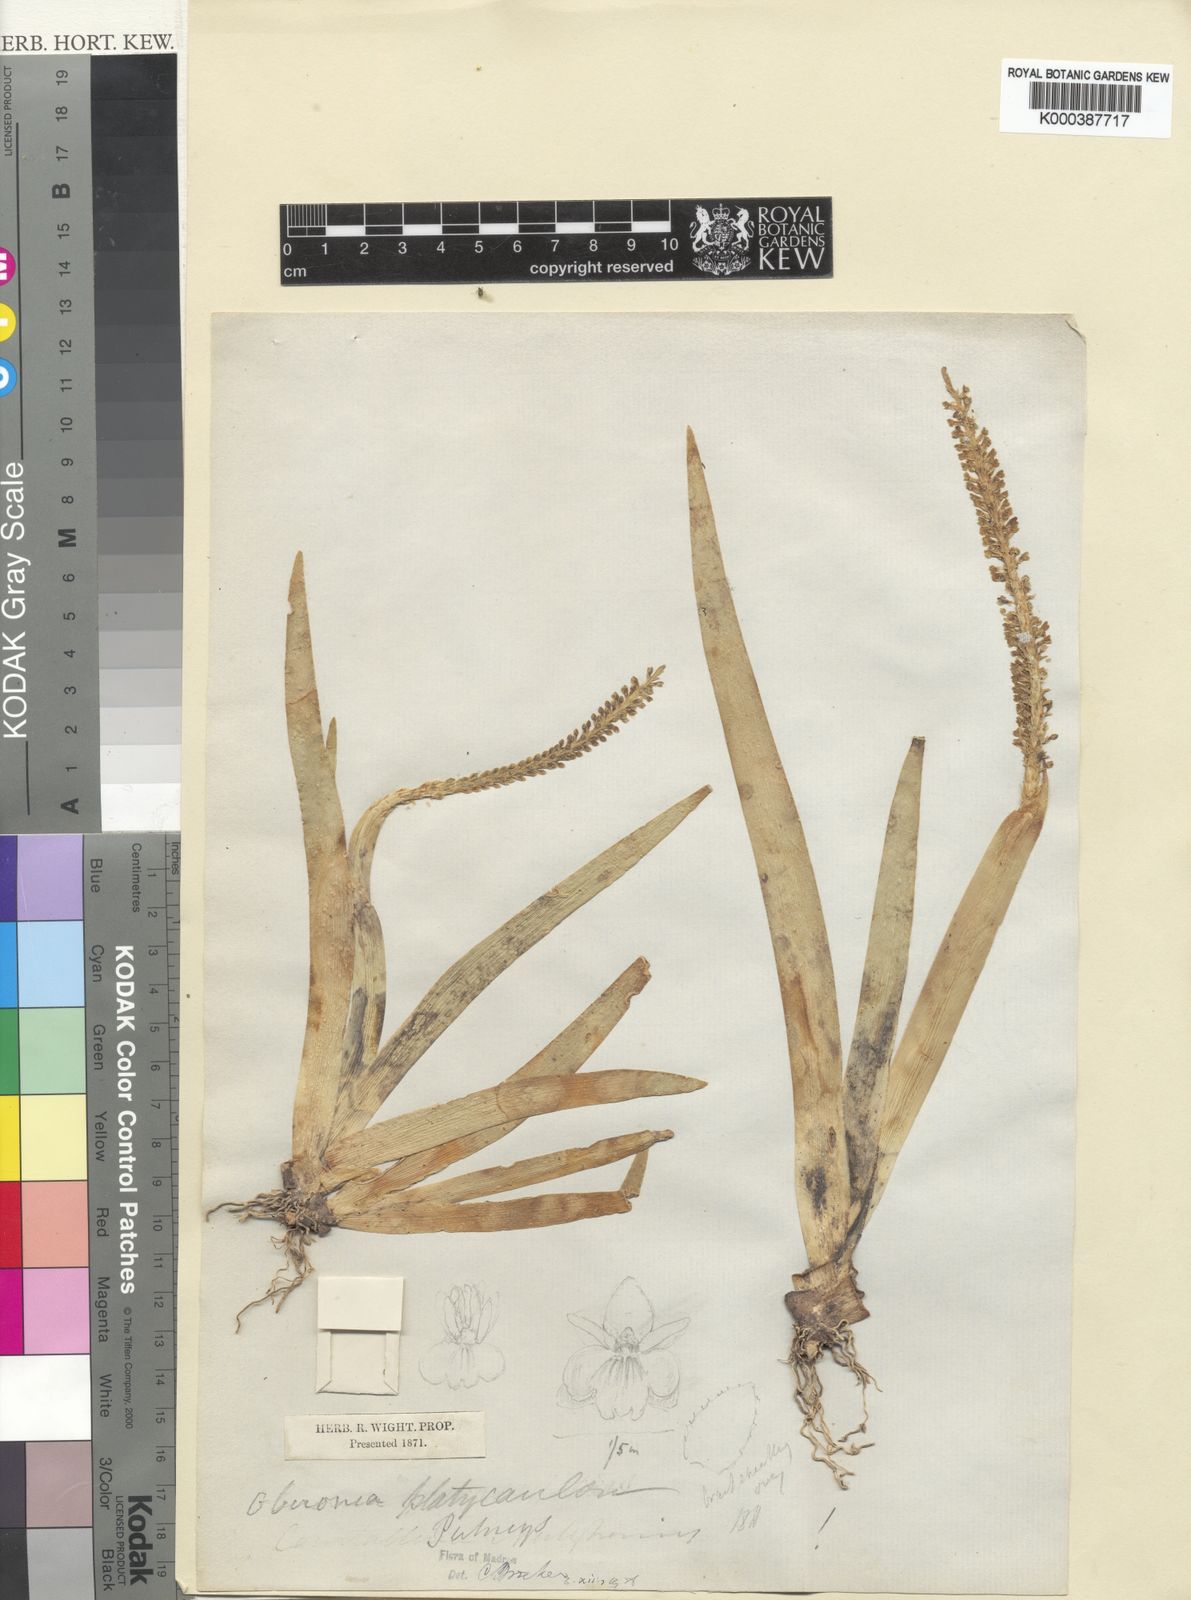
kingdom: Plantae
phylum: Tracheophyta
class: Liliopsida
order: Asparagales
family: Orchidaceae
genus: Oberonia
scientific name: Oberonia platycaulon
